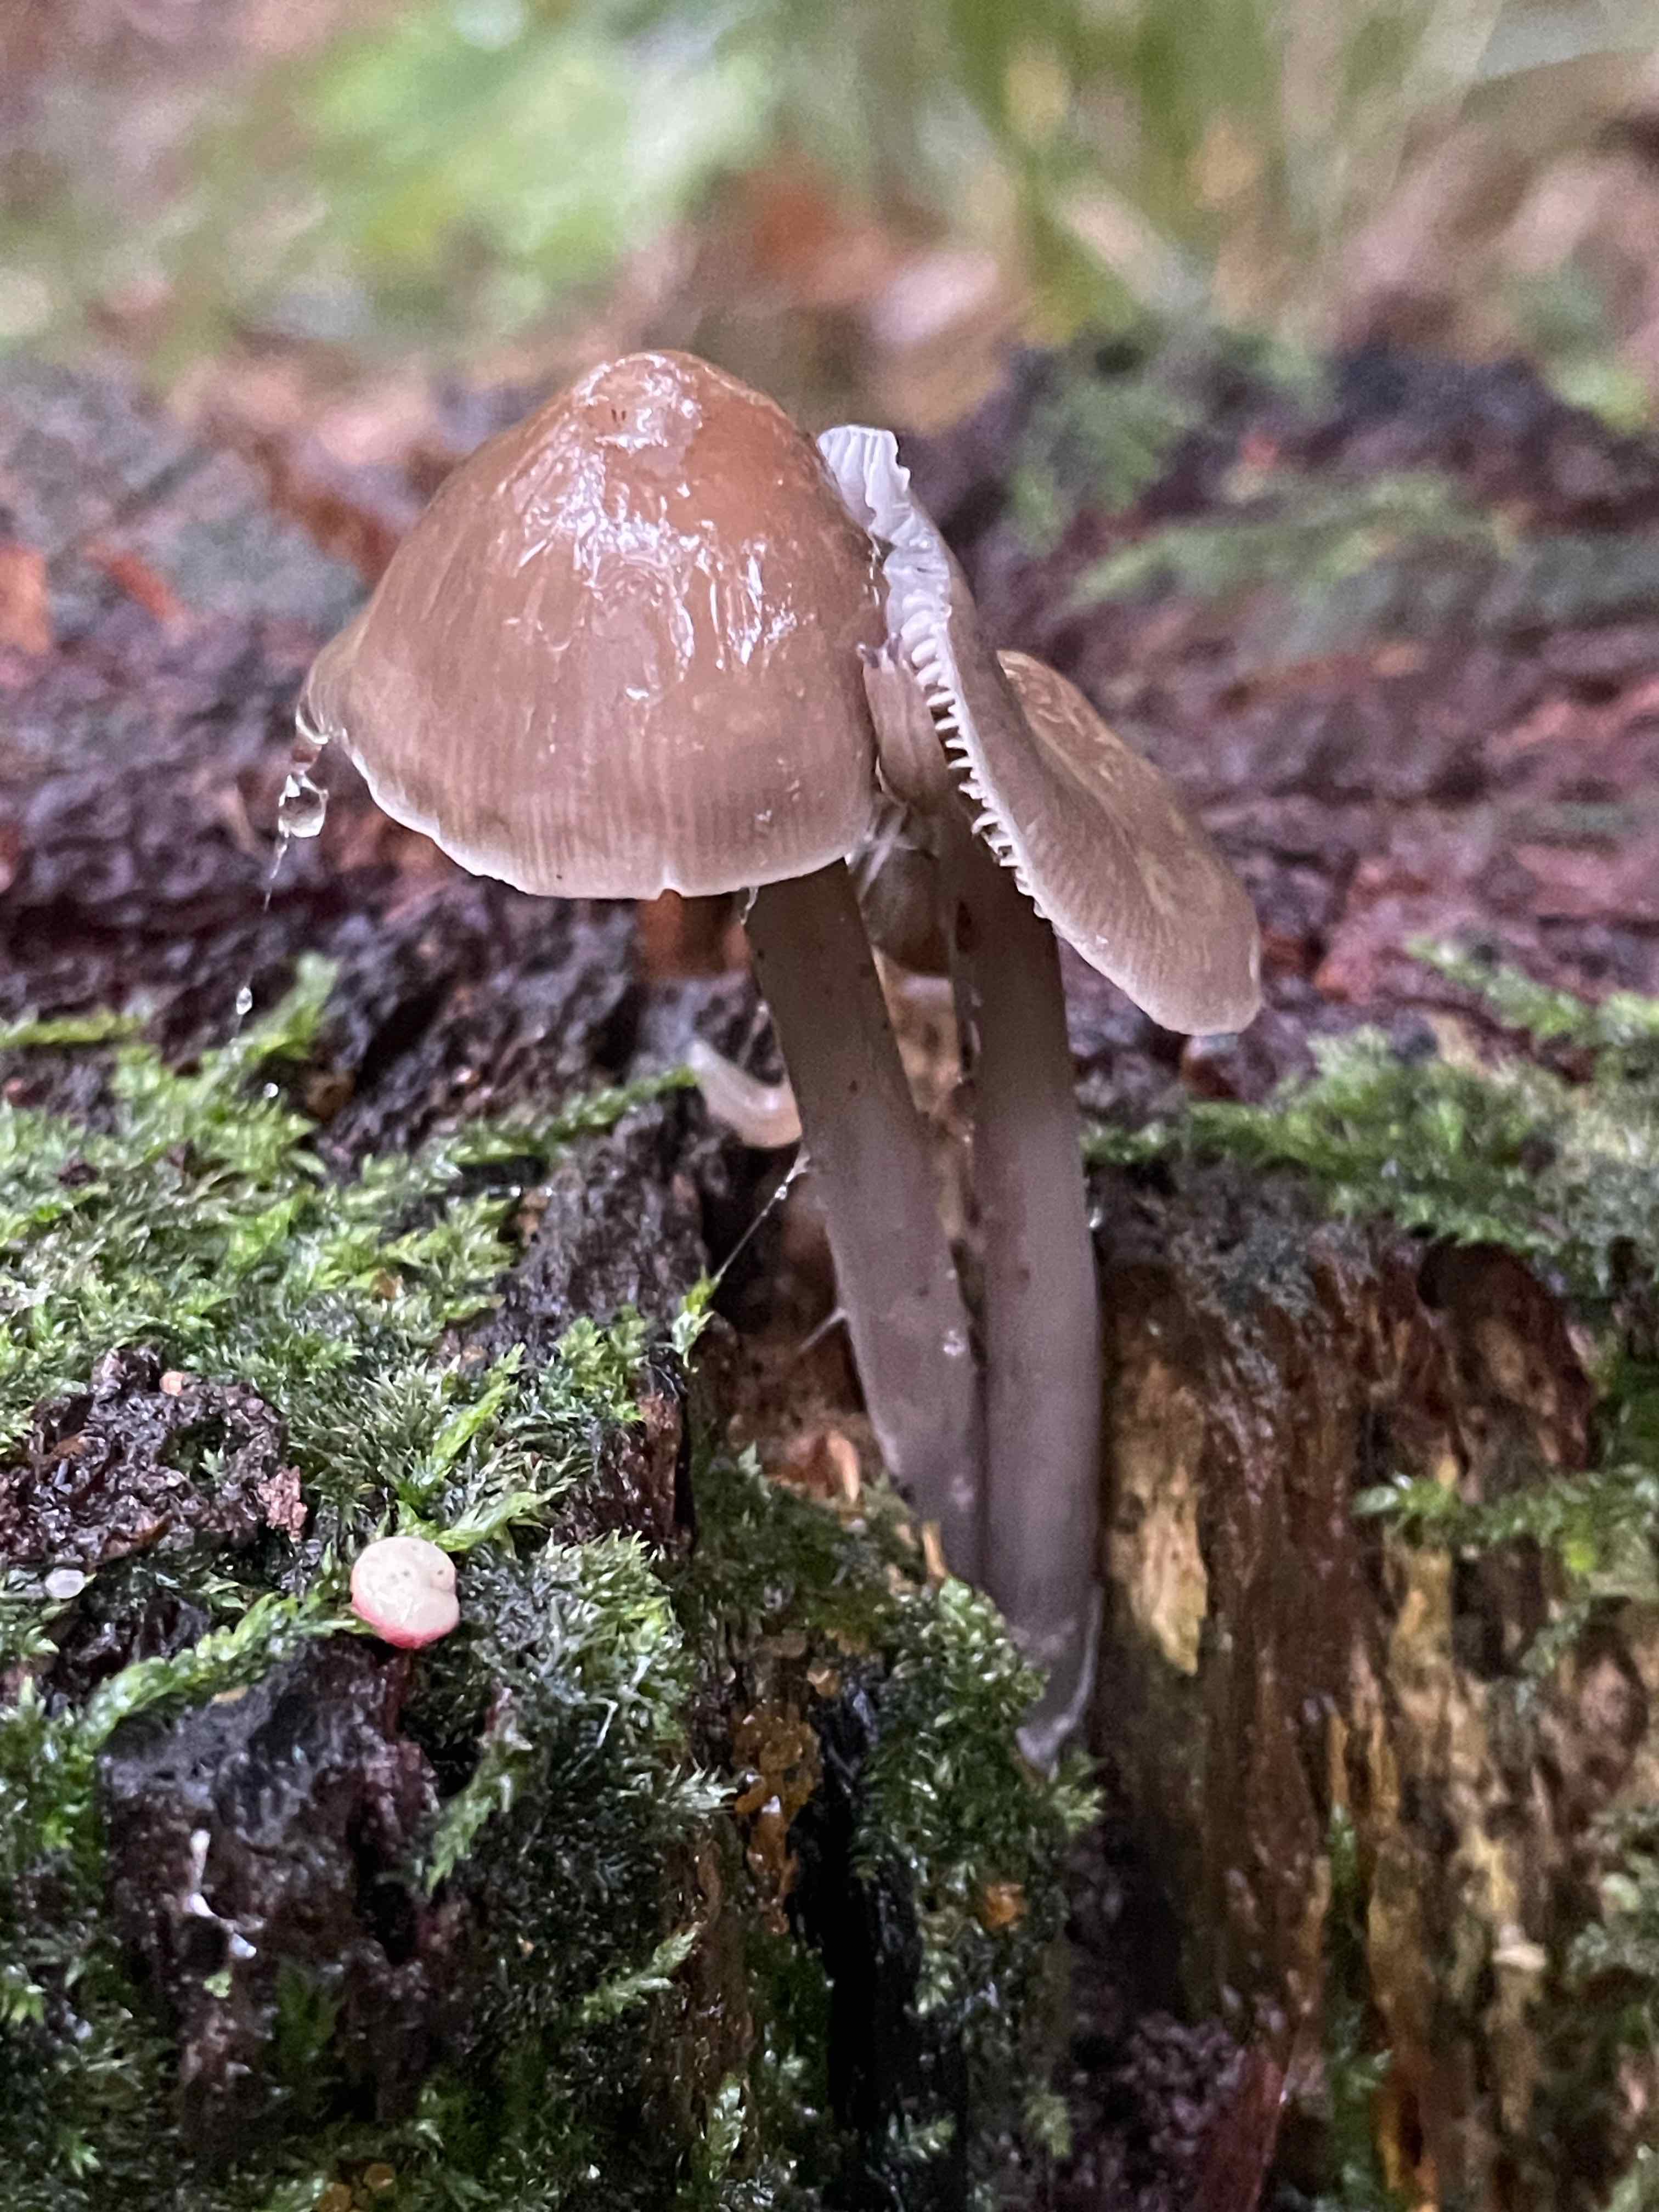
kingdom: Fungi
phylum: Basidiomycota
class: Agaricomycetes
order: Agaricales
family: Mycenaceae
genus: Mycena
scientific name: Mycena galericulata
